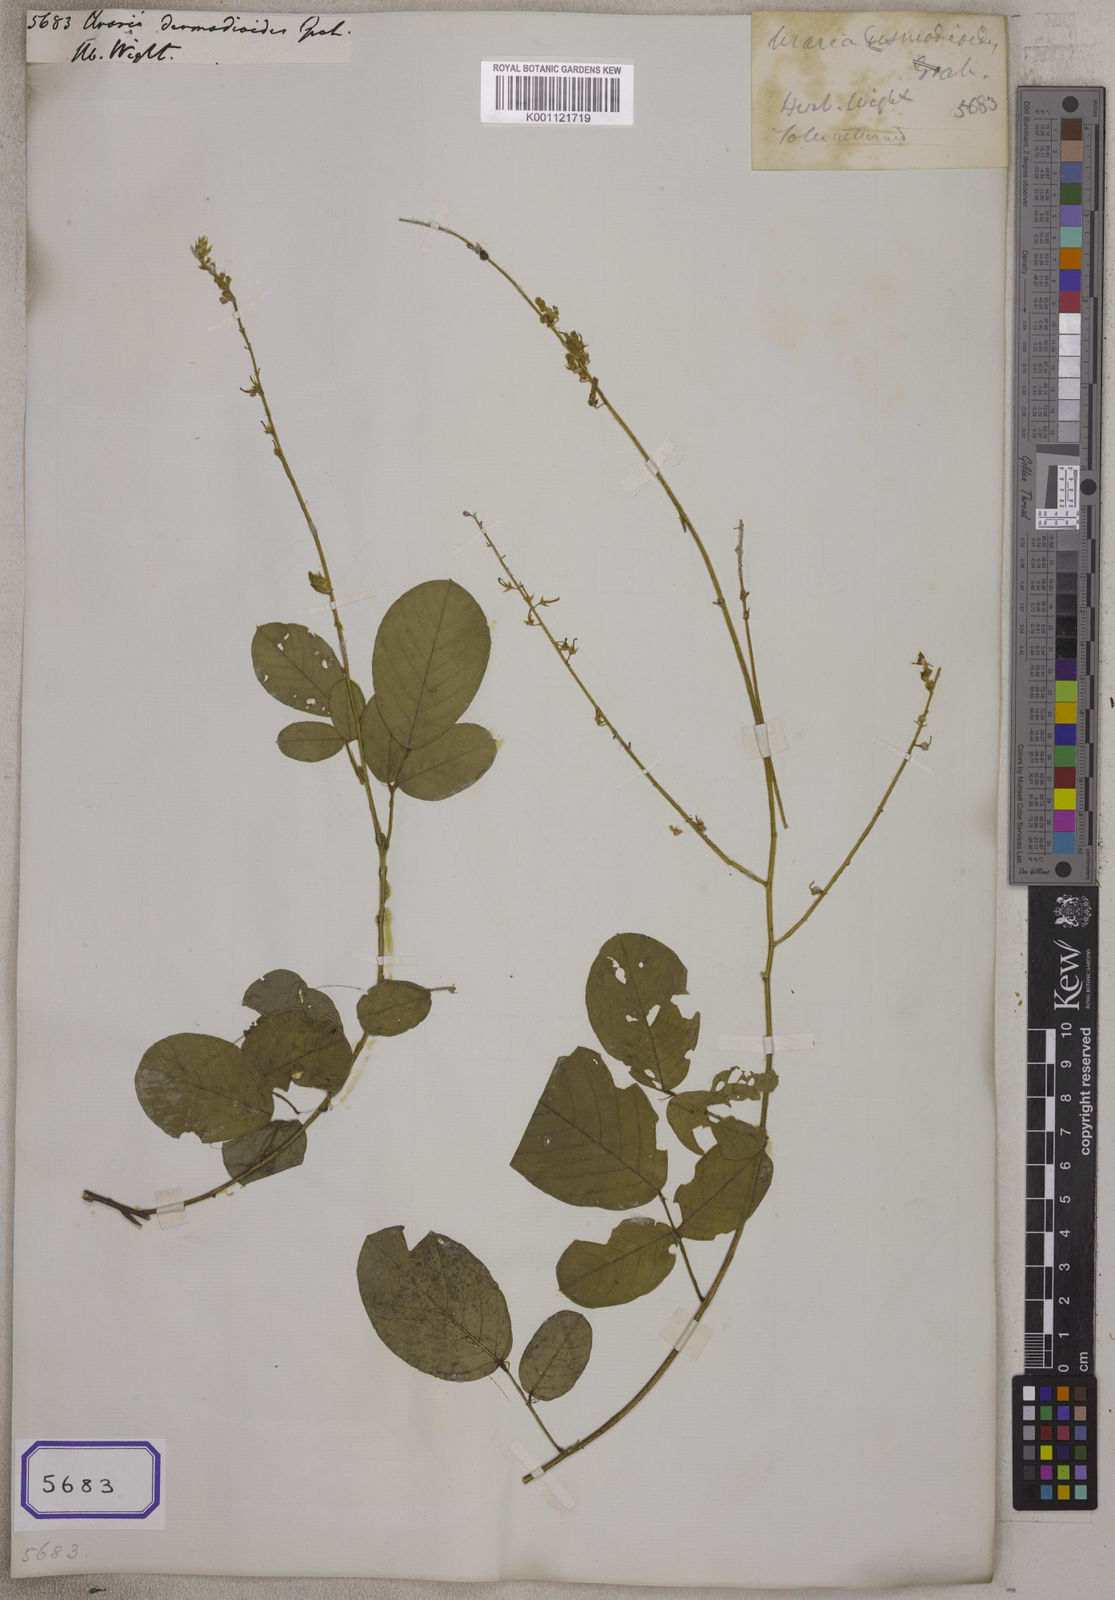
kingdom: Plantae
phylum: Tracheophyta
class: Magnoliopsida
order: Fabales
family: Fabaceae
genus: Uraria
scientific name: Uraria
